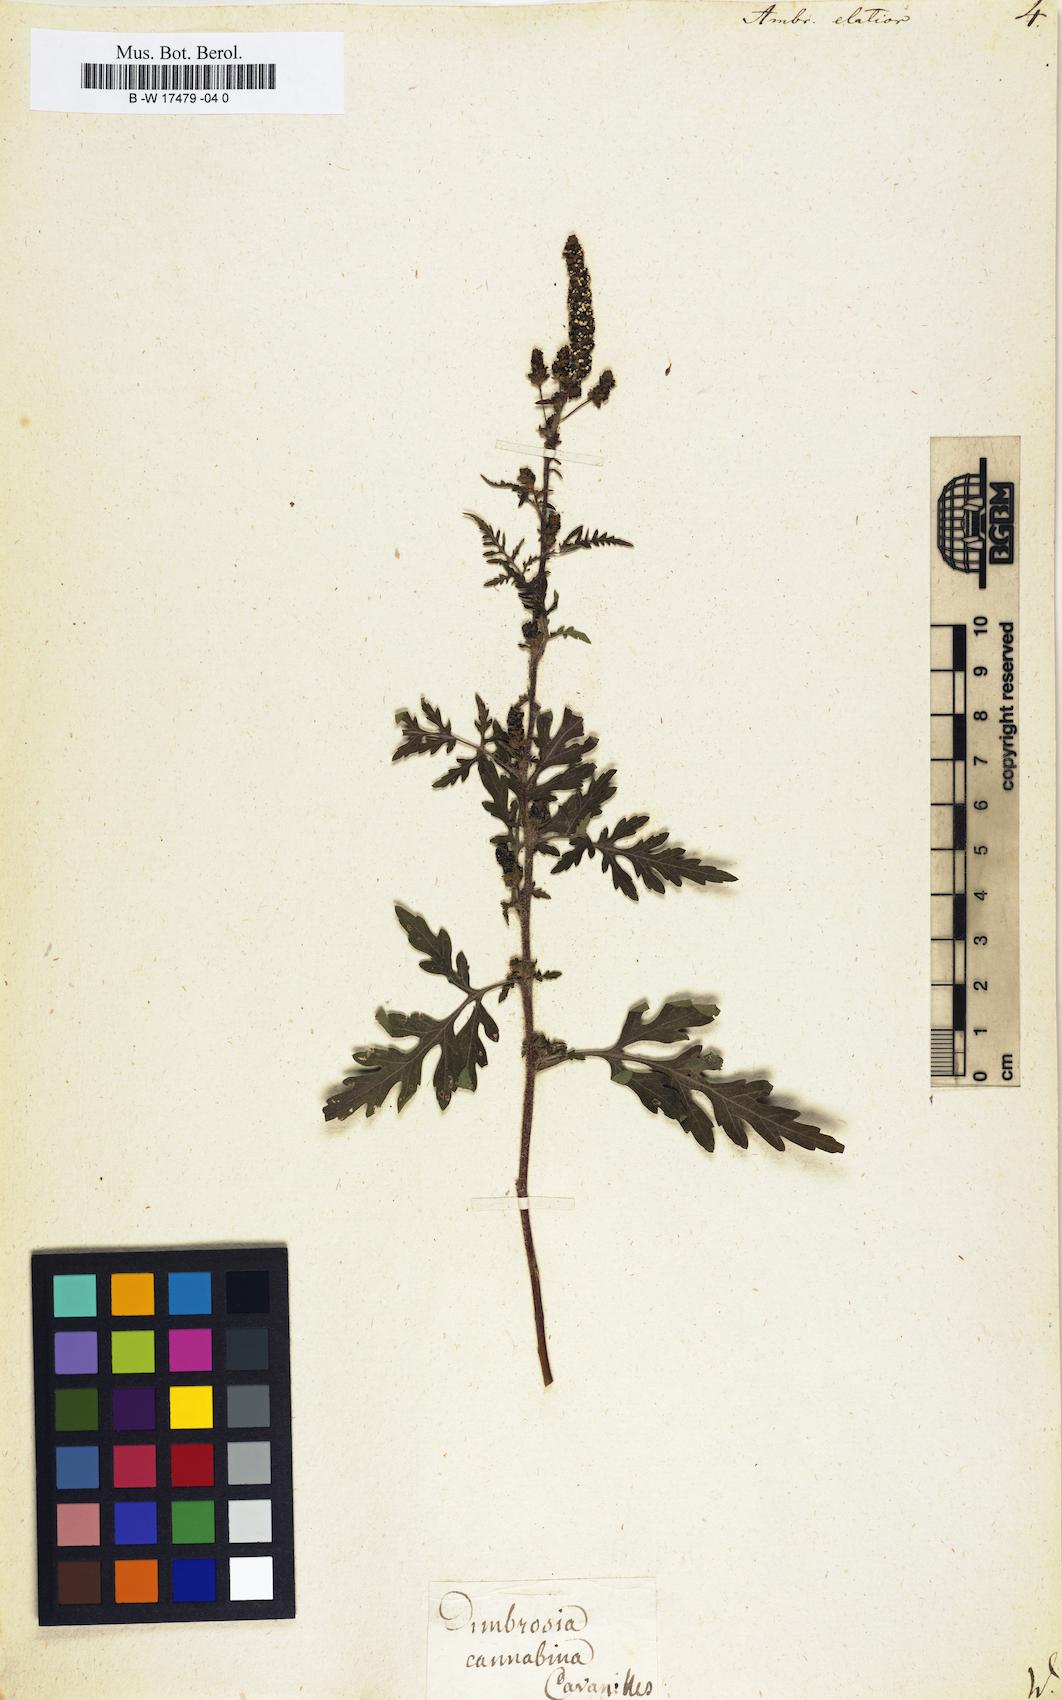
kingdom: Plantae
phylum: Tracheophyta
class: Magnoliopsida
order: Asterales
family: Asteraceae
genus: Ambrosia
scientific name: Ambrosia artemisiifolia
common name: Annual ragweed
